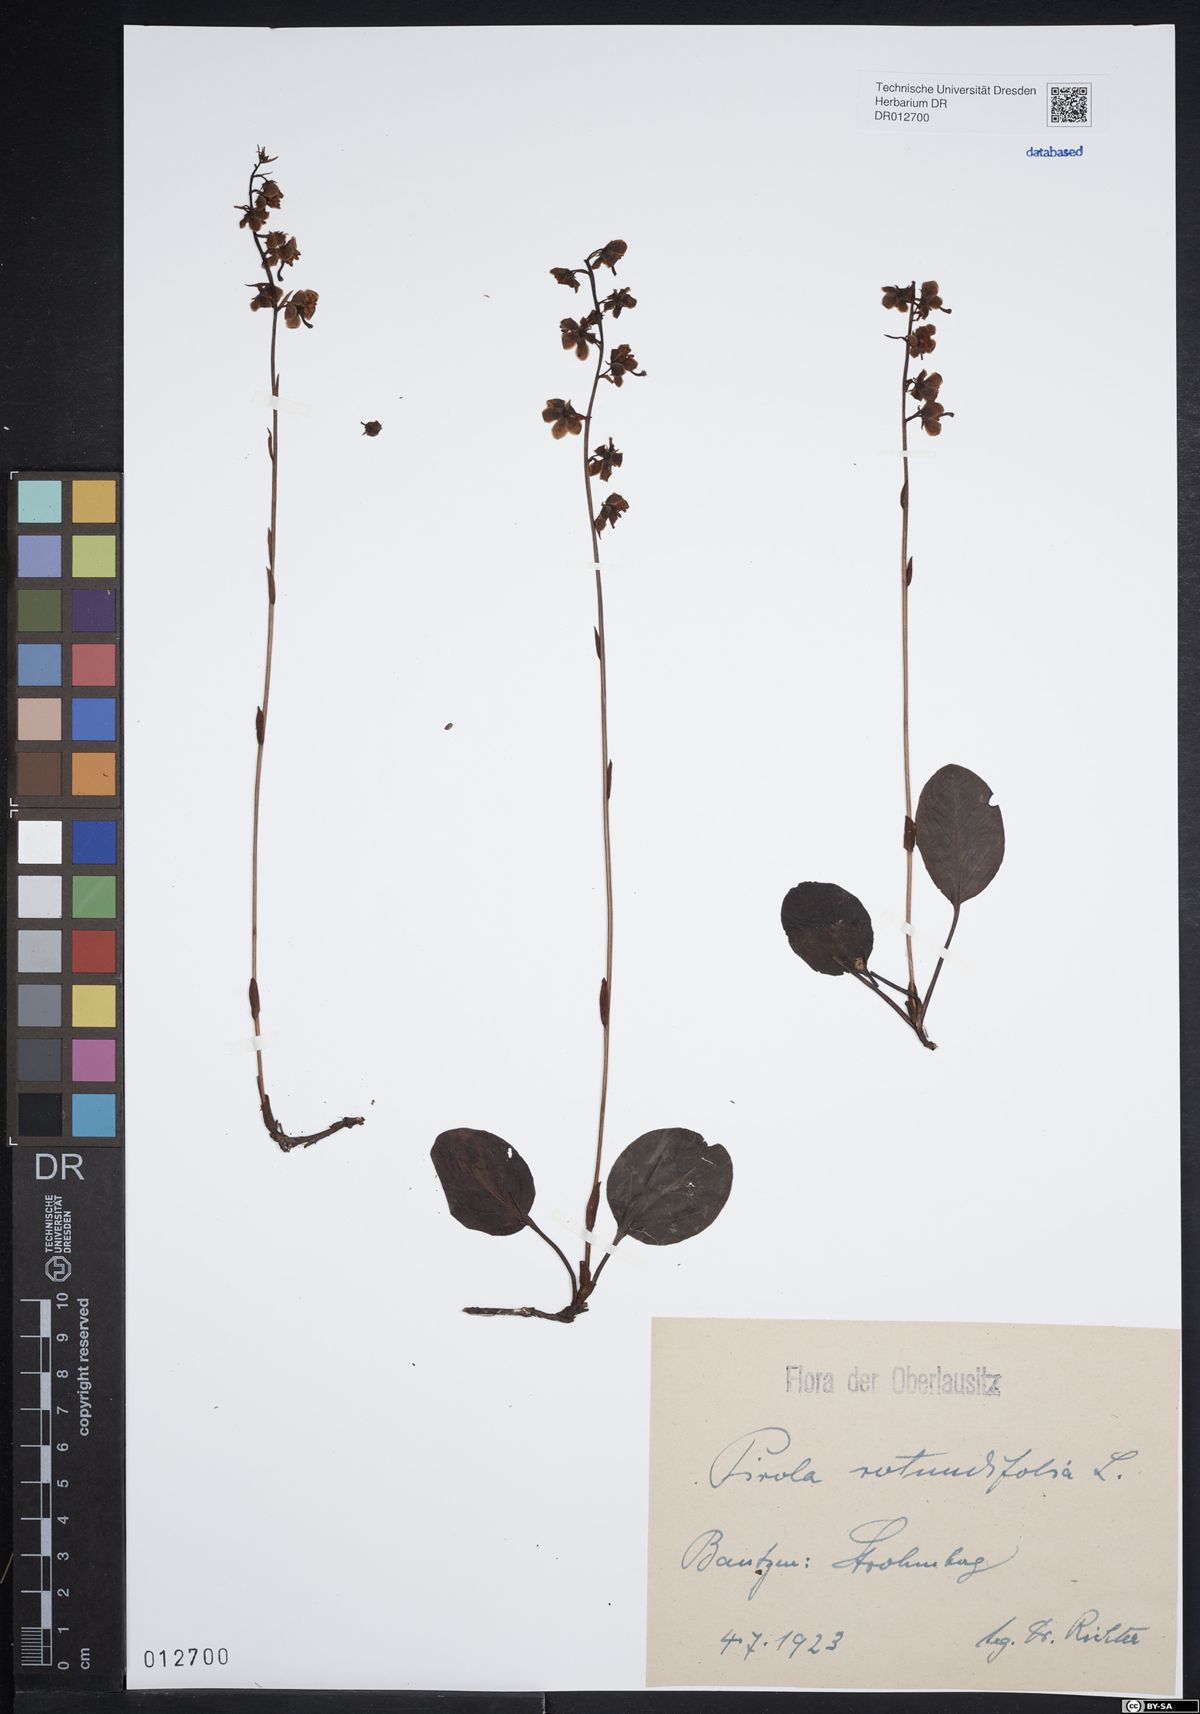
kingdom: Plantae
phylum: Tracheophyta
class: Magnoliopsida
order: Ericales
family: Ericaceae
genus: Pyrola
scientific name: Pyrola rotundifolia
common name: Round-leaved wintergreen
